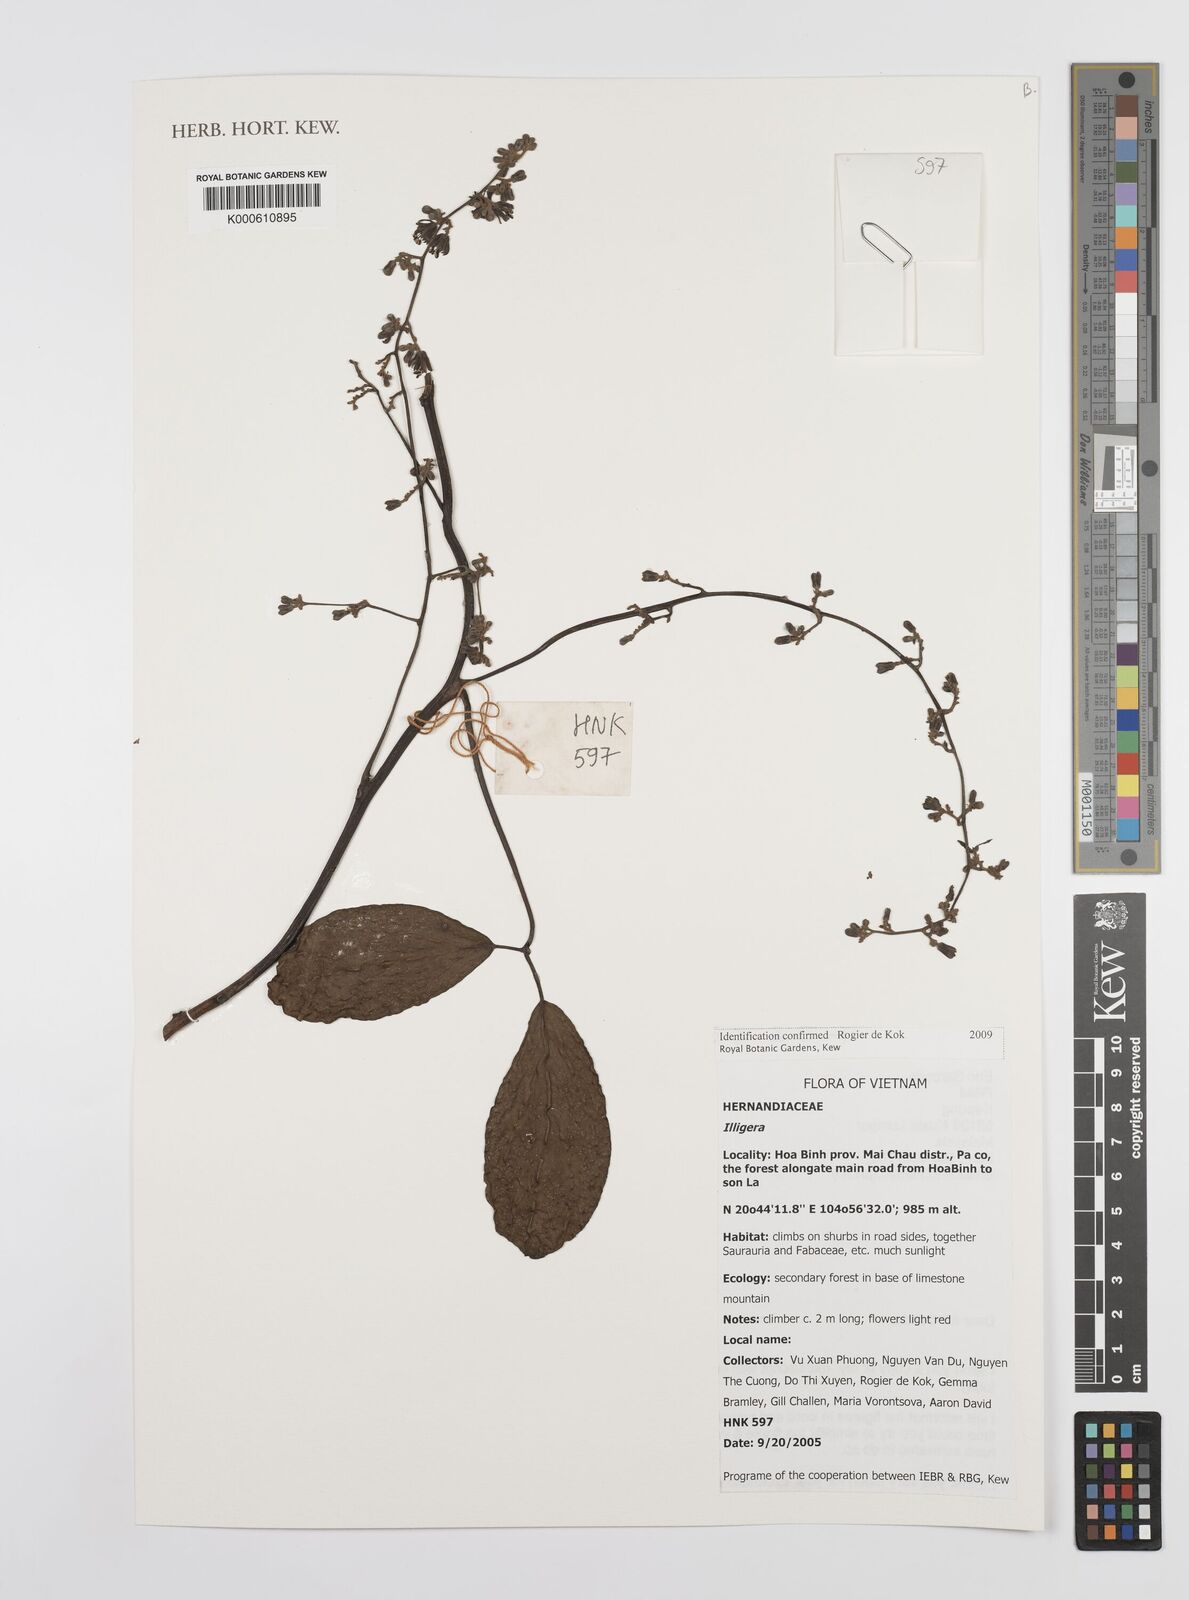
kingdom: Plantae
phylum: Tracheophyta
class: Magnoliopsida
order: Laurales
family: Hernandiaceae
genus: Illigera
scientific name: Illigera
